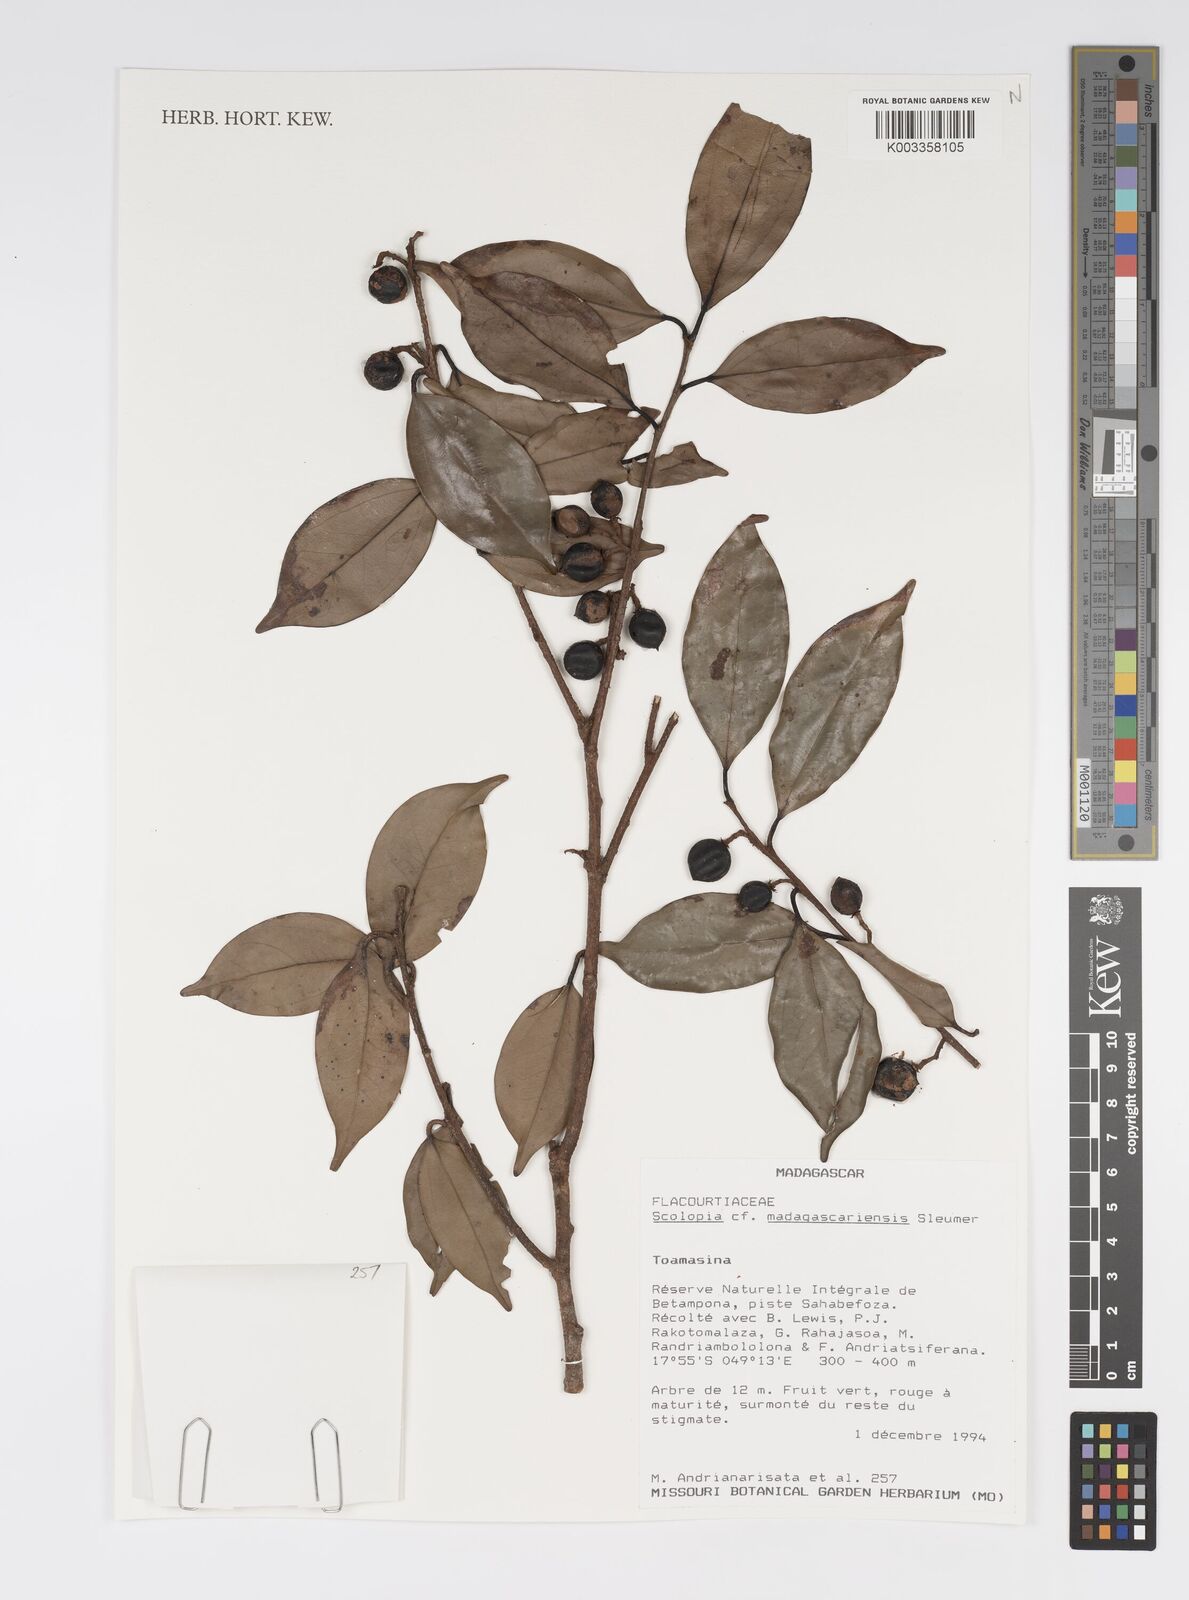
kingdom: Plantae
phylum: Tracheophyta
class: Magnoliopsida
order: Malpighiales
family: Salicaceae
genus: Scolopia
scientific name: Scolopia madagascariensis
